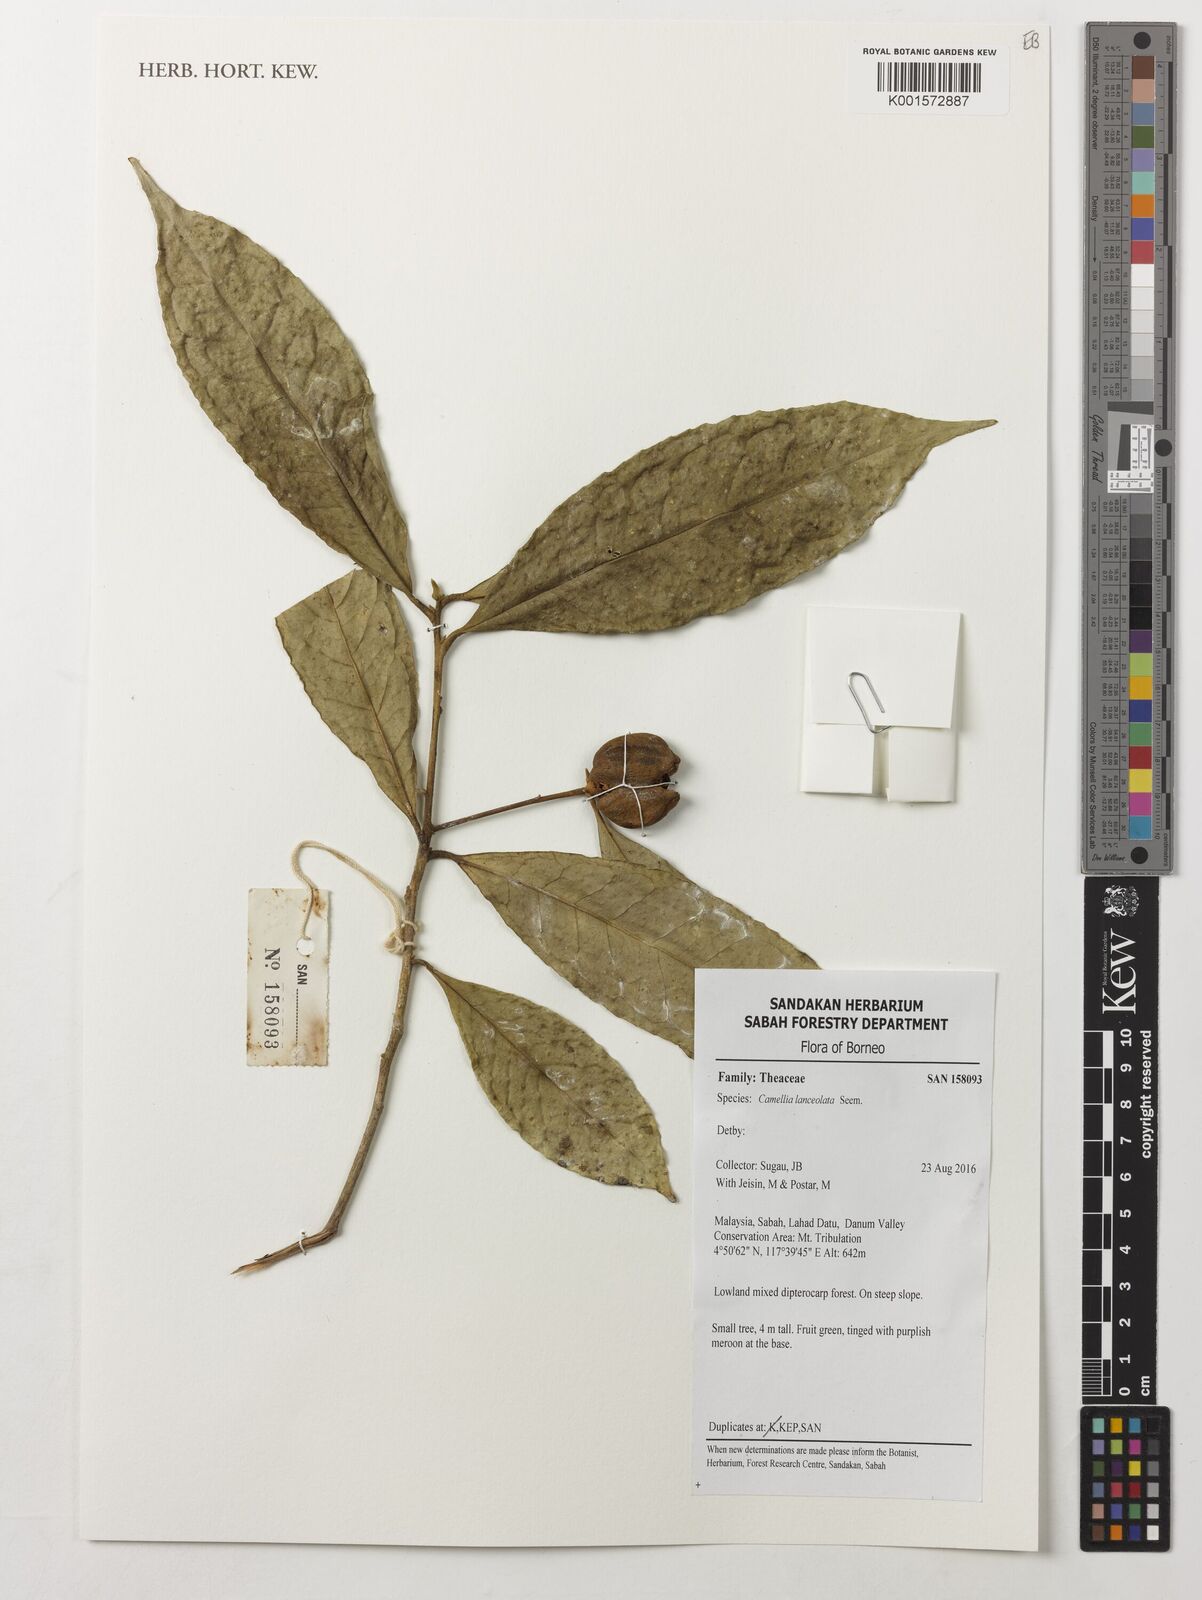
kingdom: Plantae
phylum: Tracheophyta
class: Magnoliopsida
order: Ericales
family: Theaceae
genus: Camellia
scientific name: Camellia lanceolata
